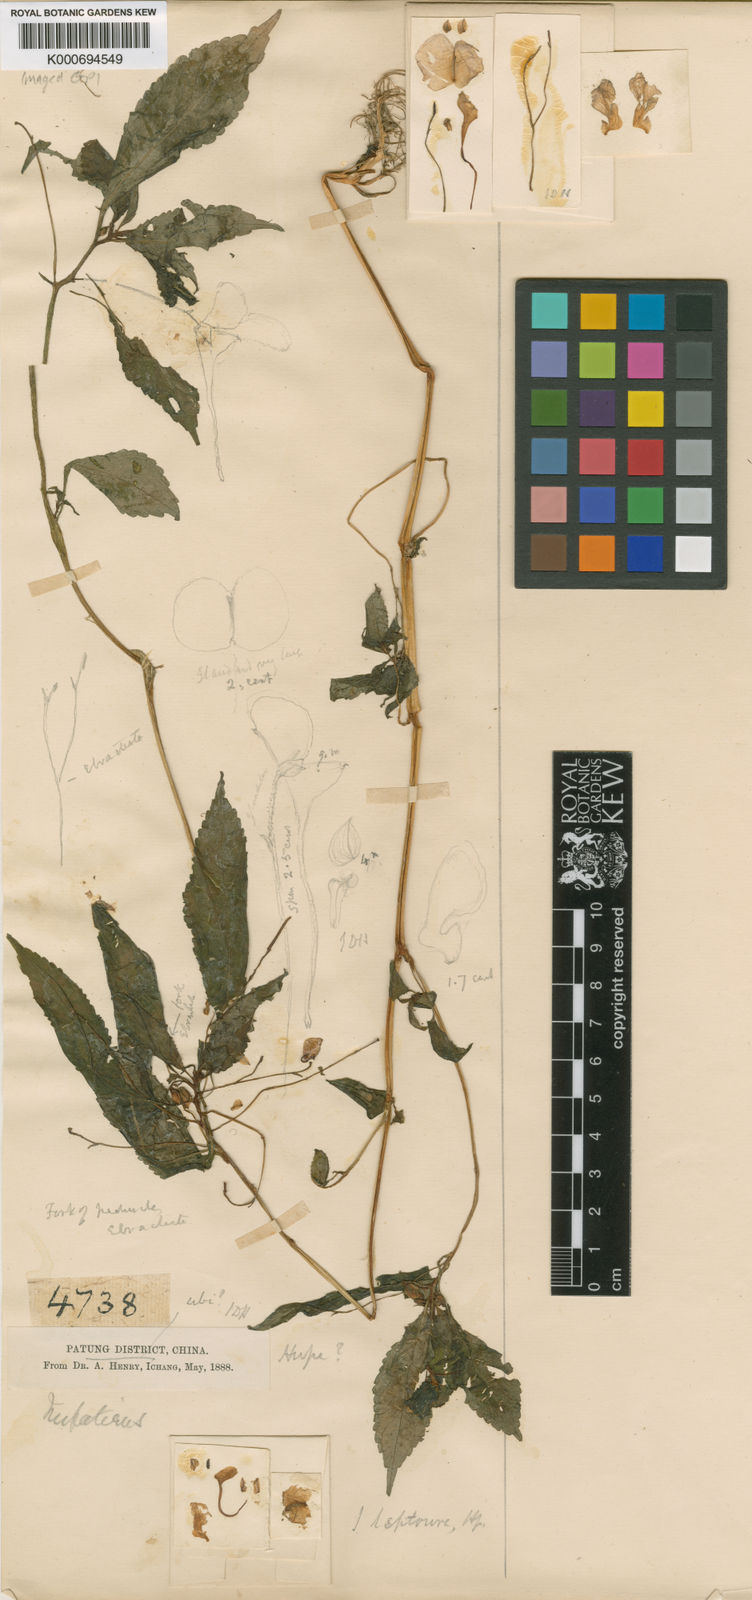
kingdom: Plantae
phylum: Tracheophyta
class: Magnoliopsida
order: Ericales
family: Balsaminaceae
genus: Impatiens
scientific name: Impatiens
